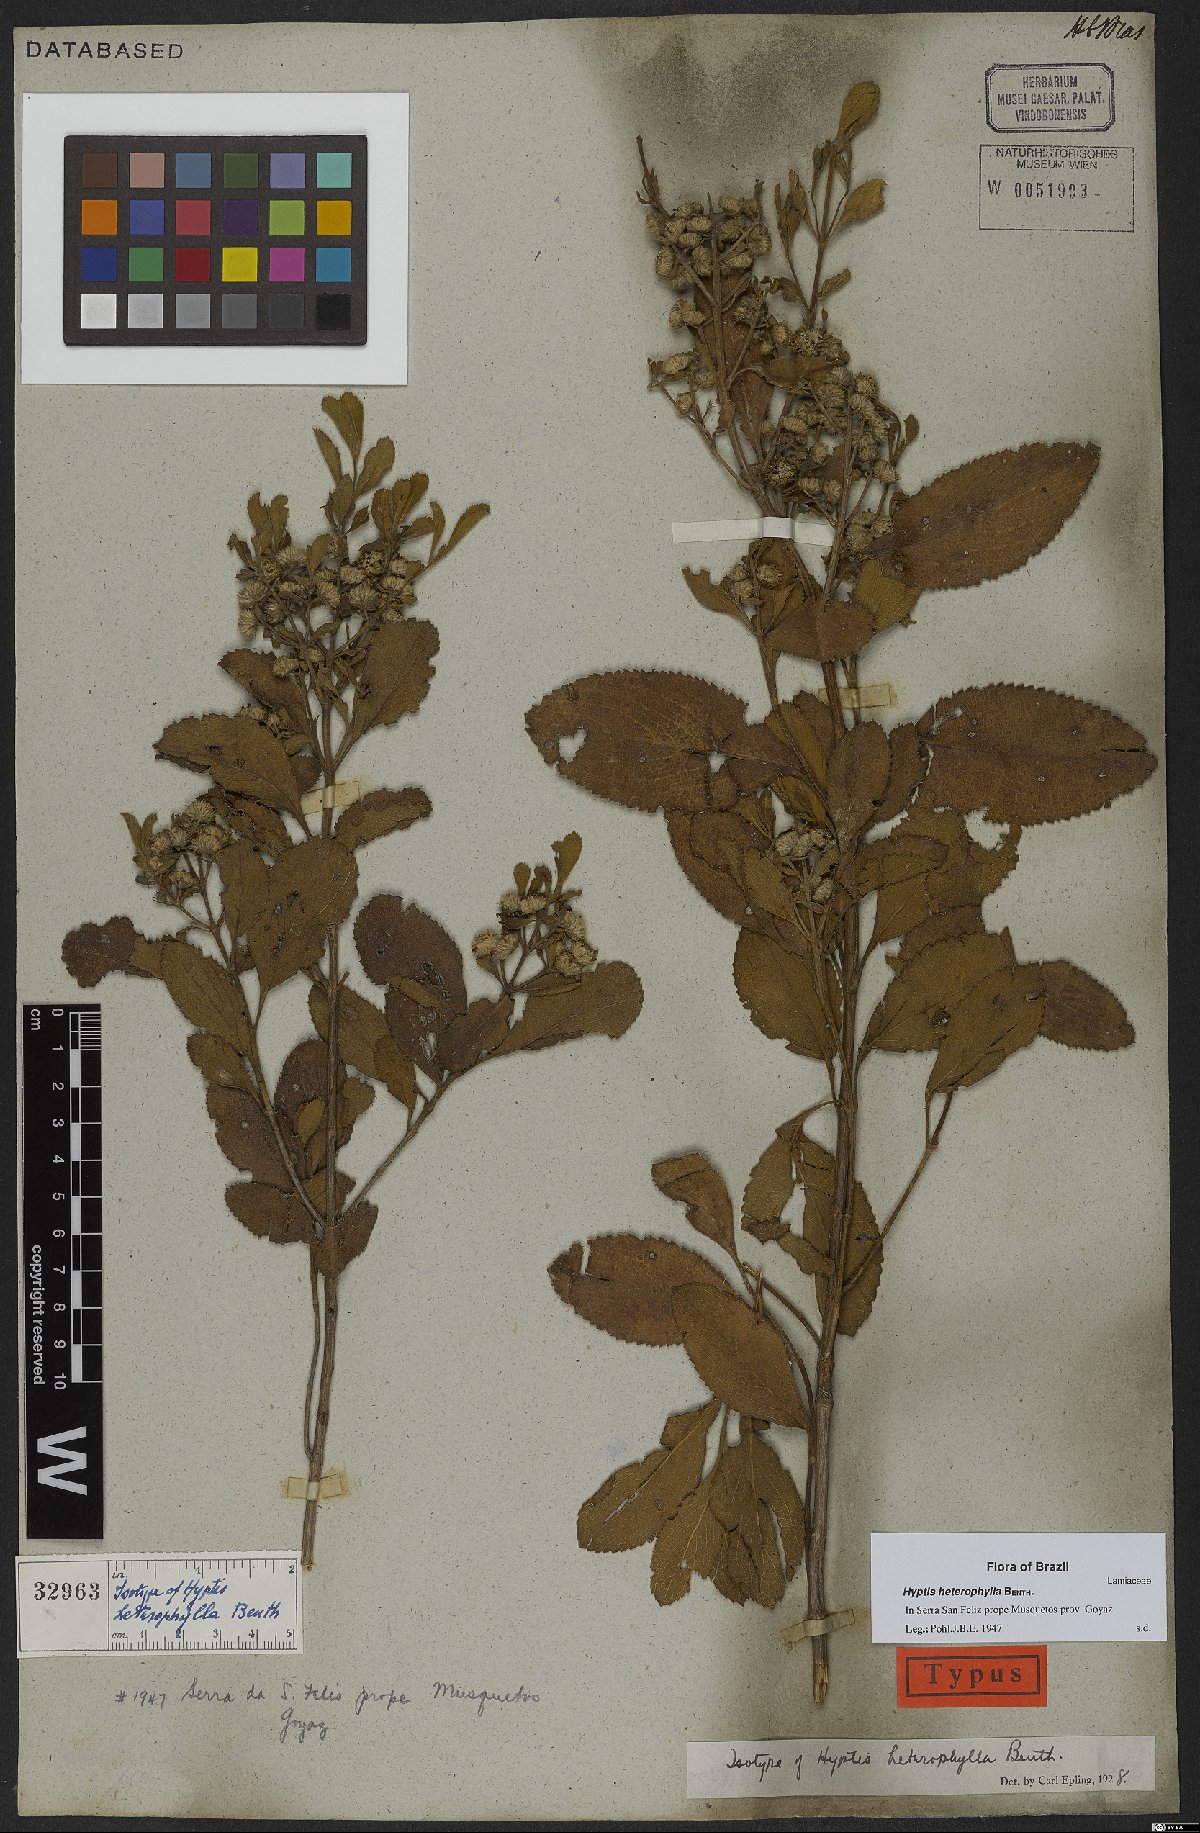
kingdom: Plantae
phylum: Tracheophyta
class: Magnoliopsida
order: Lamiales
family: Lamiaceae
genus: Hyptis
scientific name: Hyptis heterophylla
